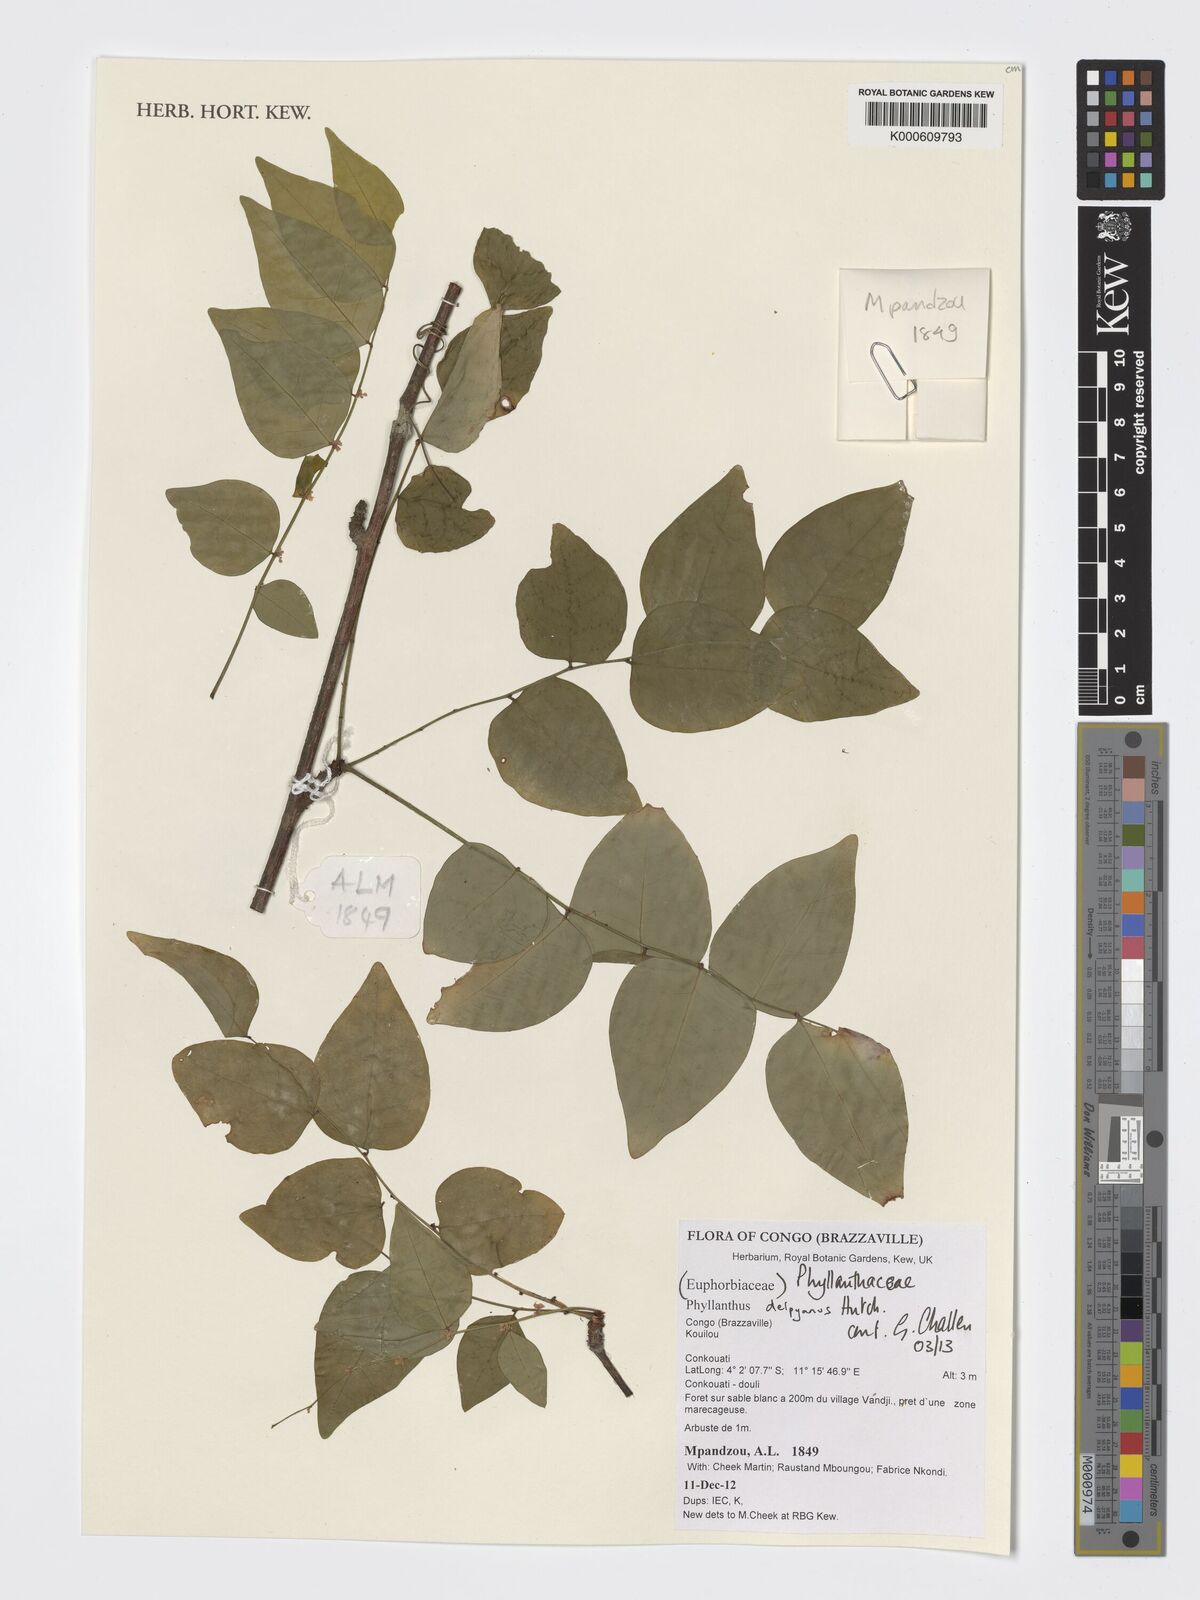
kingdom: Plantae
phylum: Tracheophyta
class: Magnoliopsida
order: Malpighiales
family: Phyllanthaceae
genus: Phyllanthus
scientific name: Phyllanthus physocarpus
